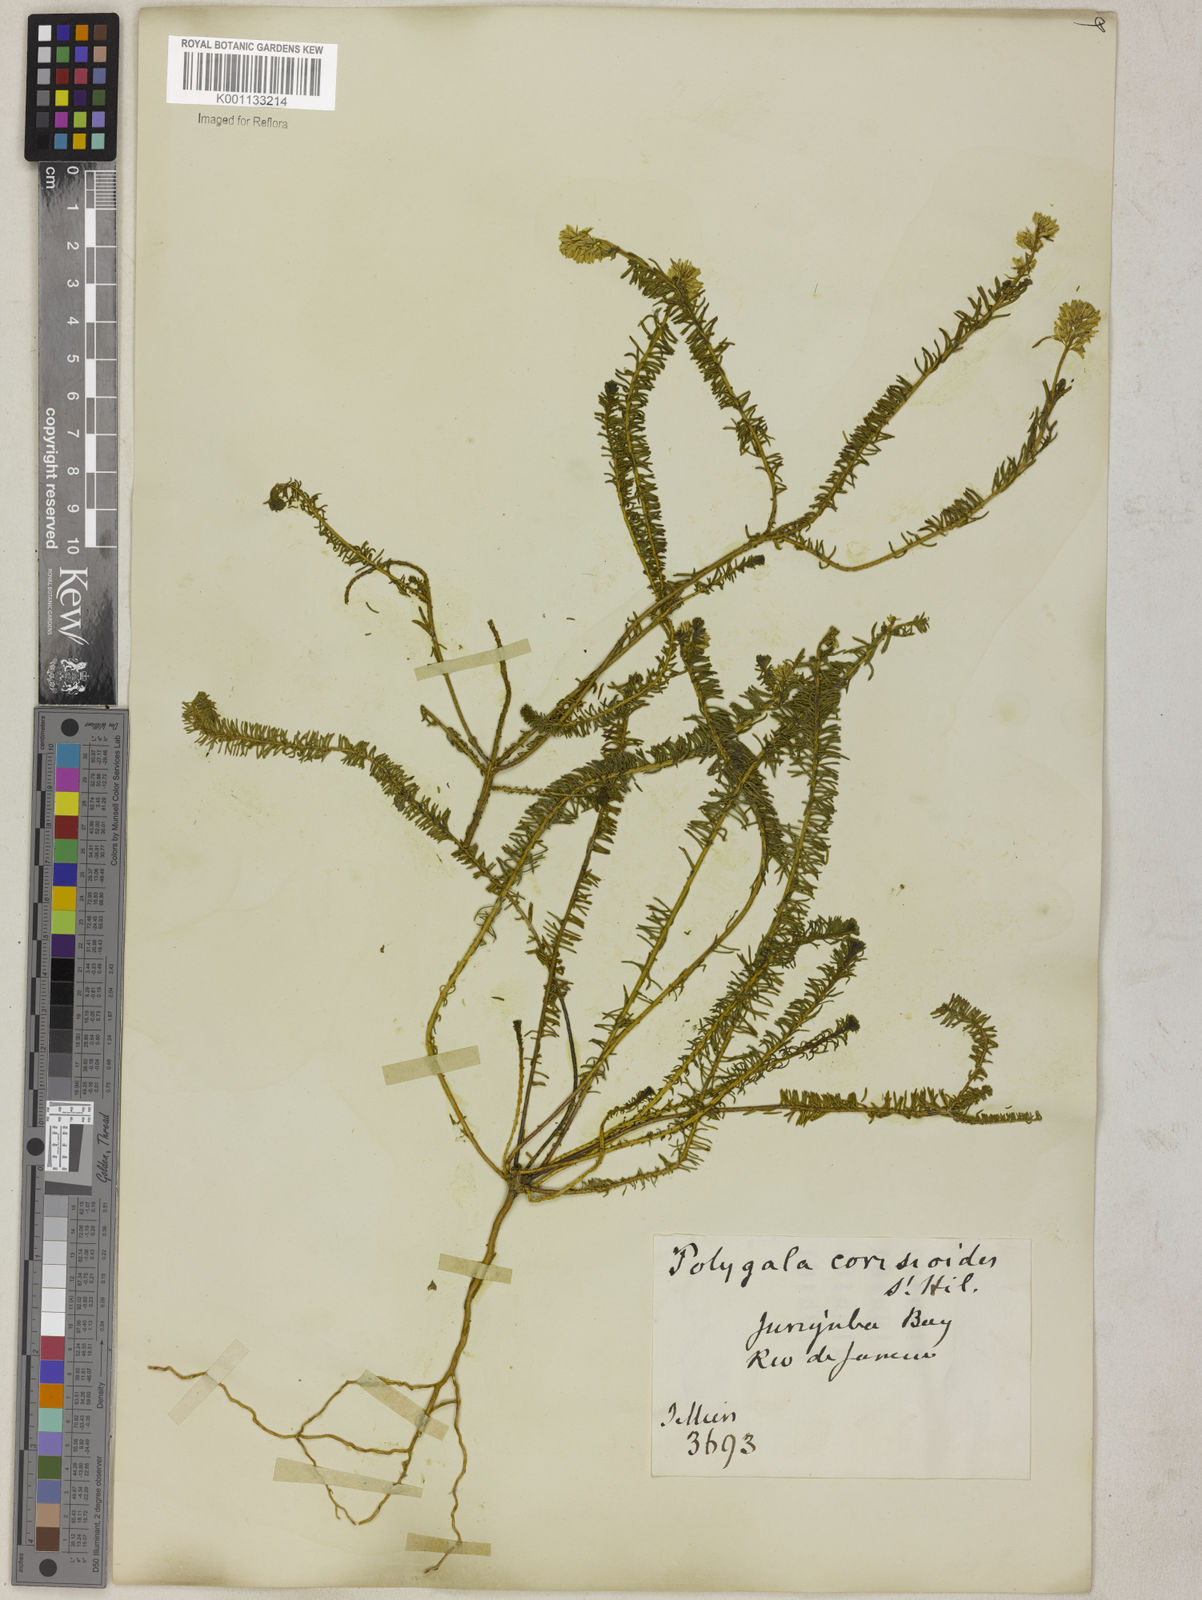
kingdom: Plantae
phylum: Tracheophyta
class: Magnoliopsida
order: Fabales
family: Polygalaceae
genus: Polygala
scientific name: Polygala cyparissias
